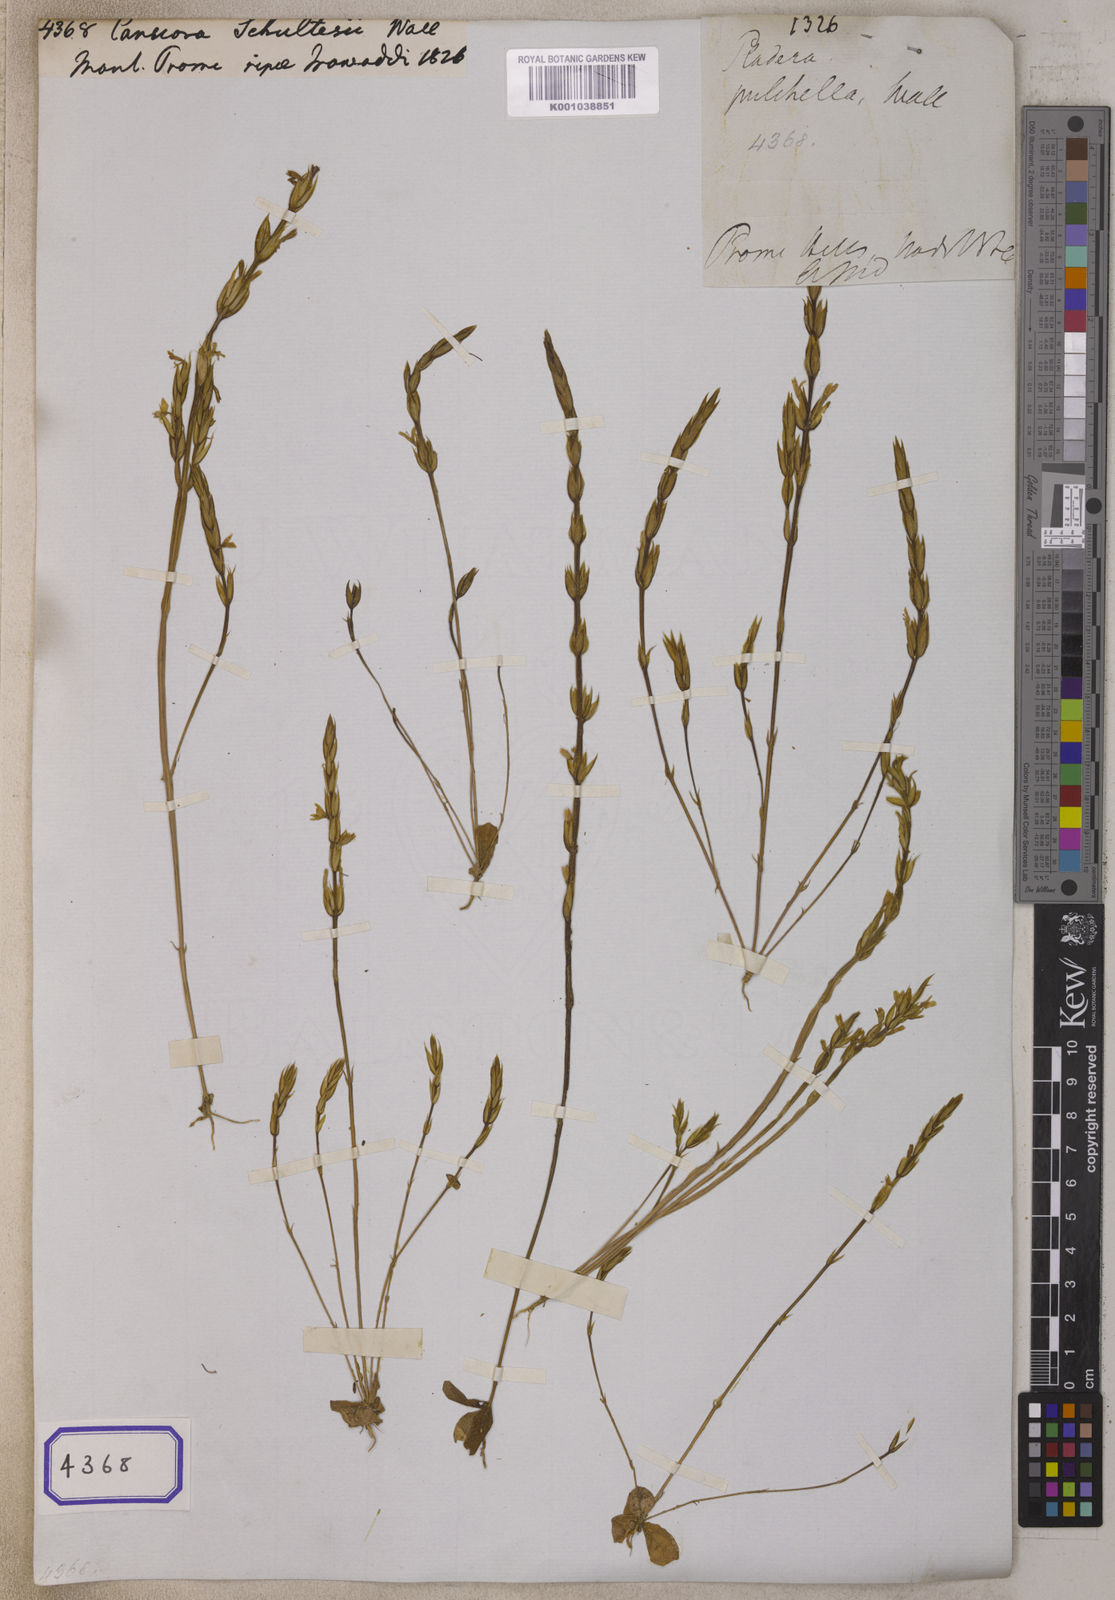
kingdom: Plantae
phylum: Tracheophyta
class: Magnoliopsida
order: Gentianales
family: Gentianaceae
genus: Canscora
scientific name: Canscora
